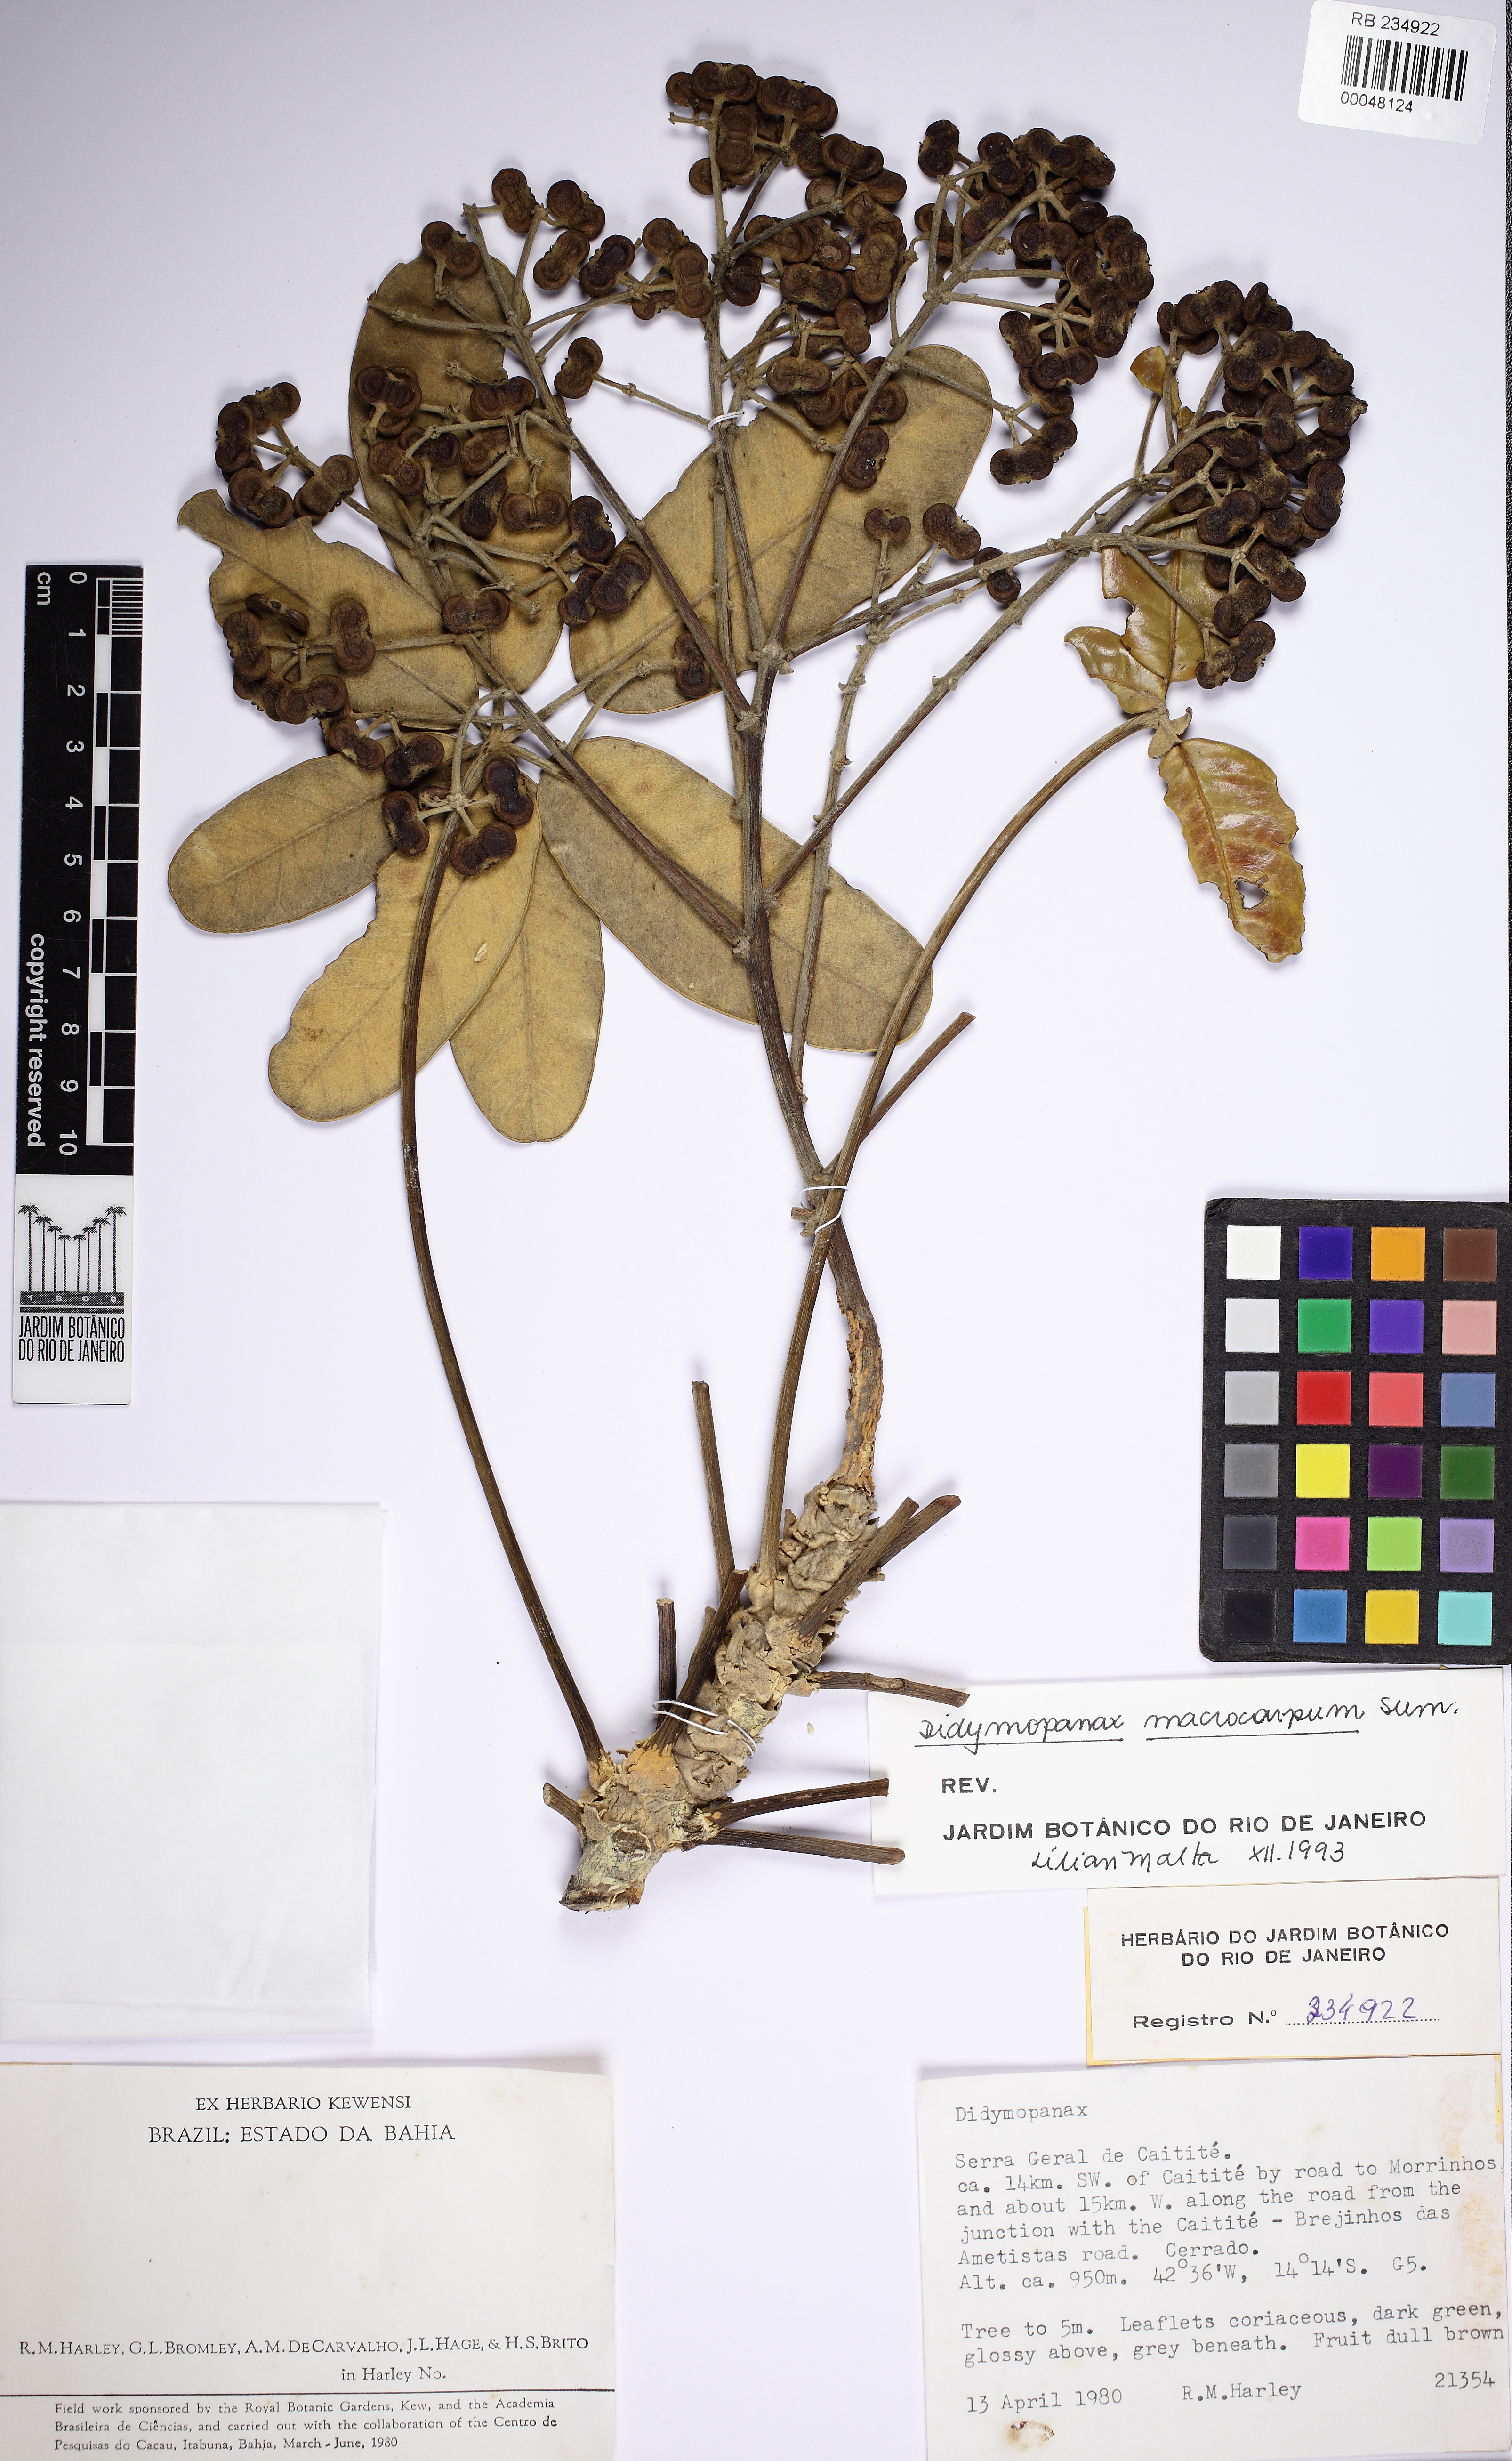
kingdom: Plantae
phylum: Tracheophyta
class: Magnoliopsida
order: Apiales
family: Araliaceae
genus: Didymopanax
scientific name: Didymopanax macrocarpus
